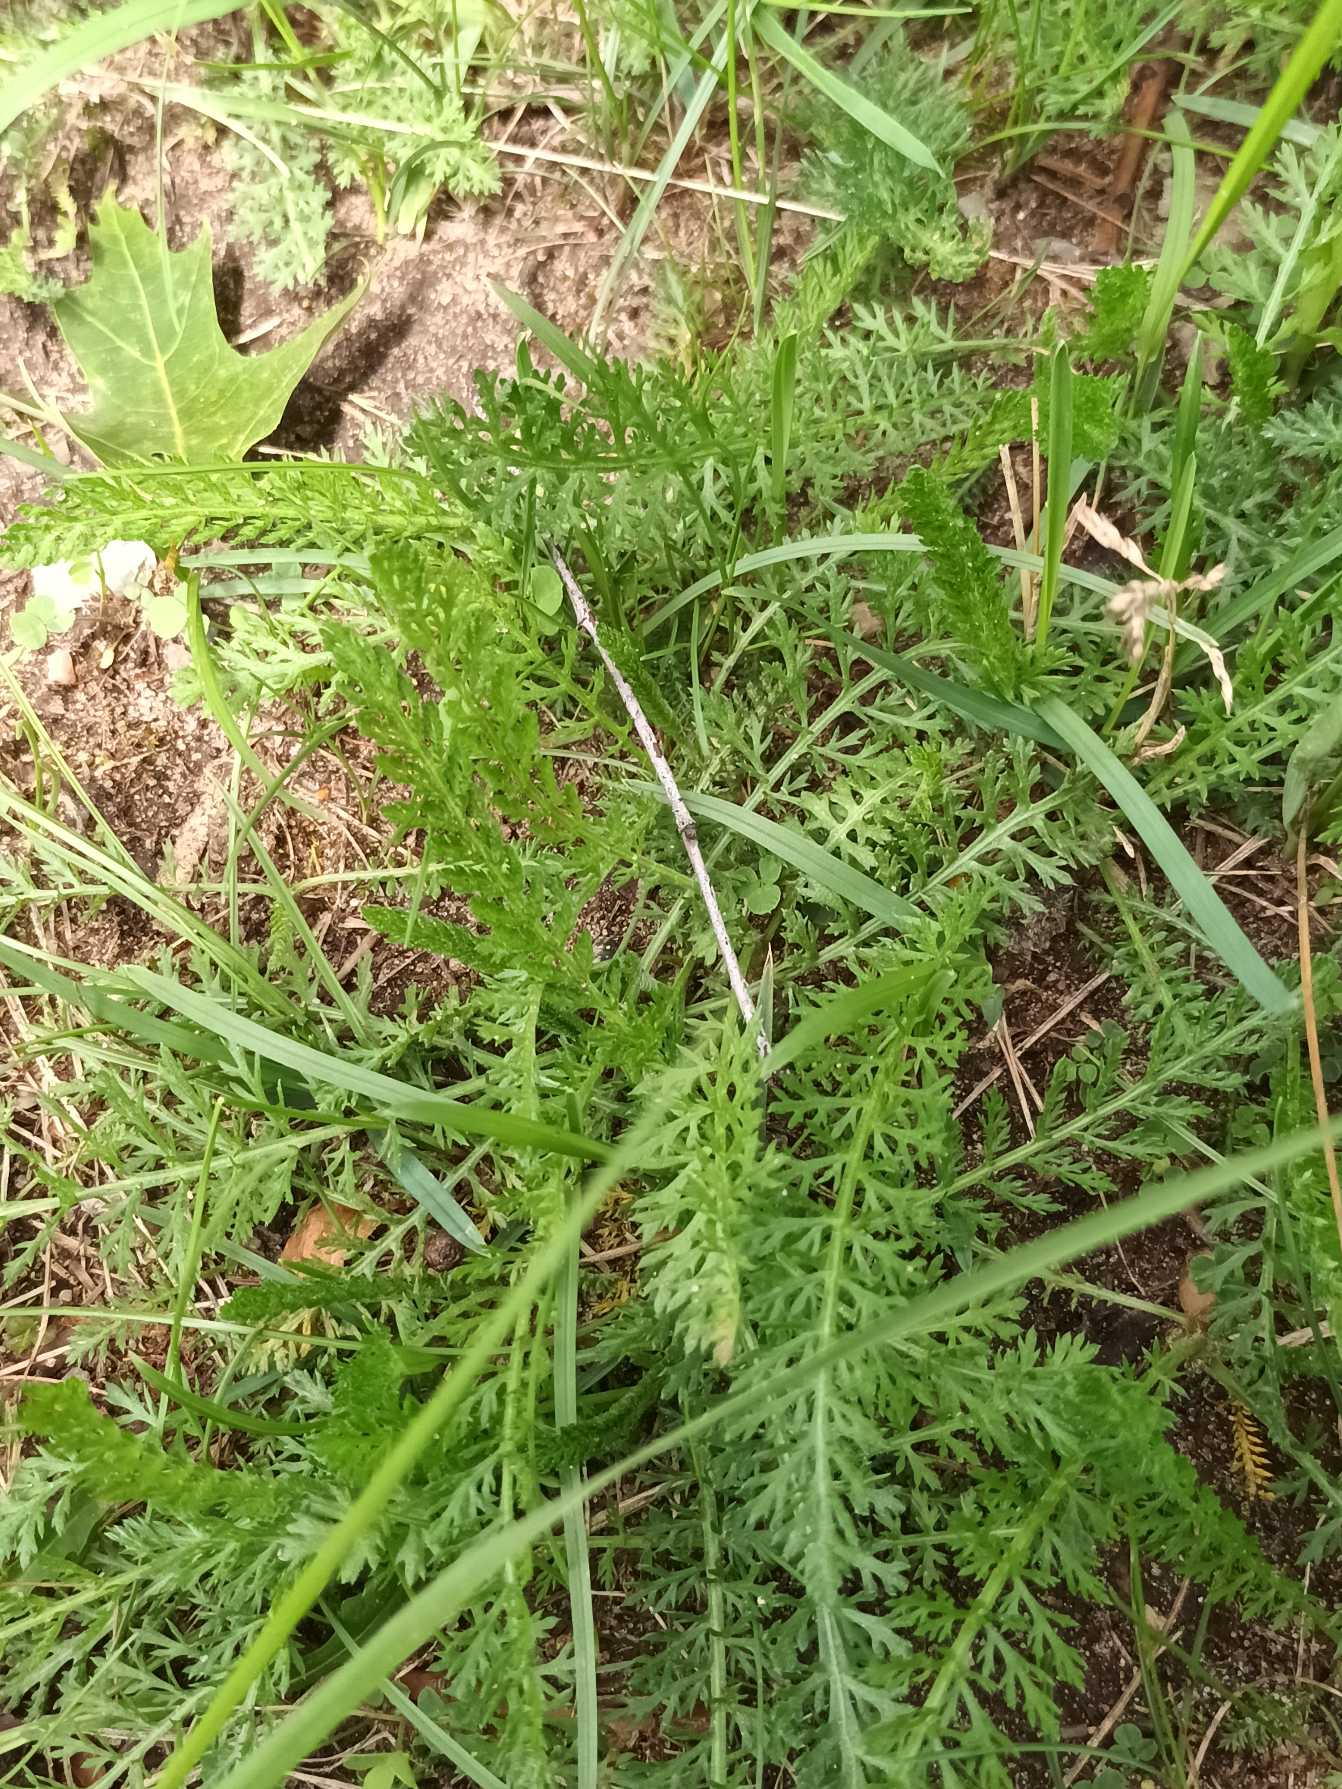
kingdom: Plantae
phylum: Tracheophyta
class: Magnoliopsida
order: Asterales
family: Asteraceae
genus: Achillea
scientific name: Achillea millefolium
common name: Almindelig røllike
